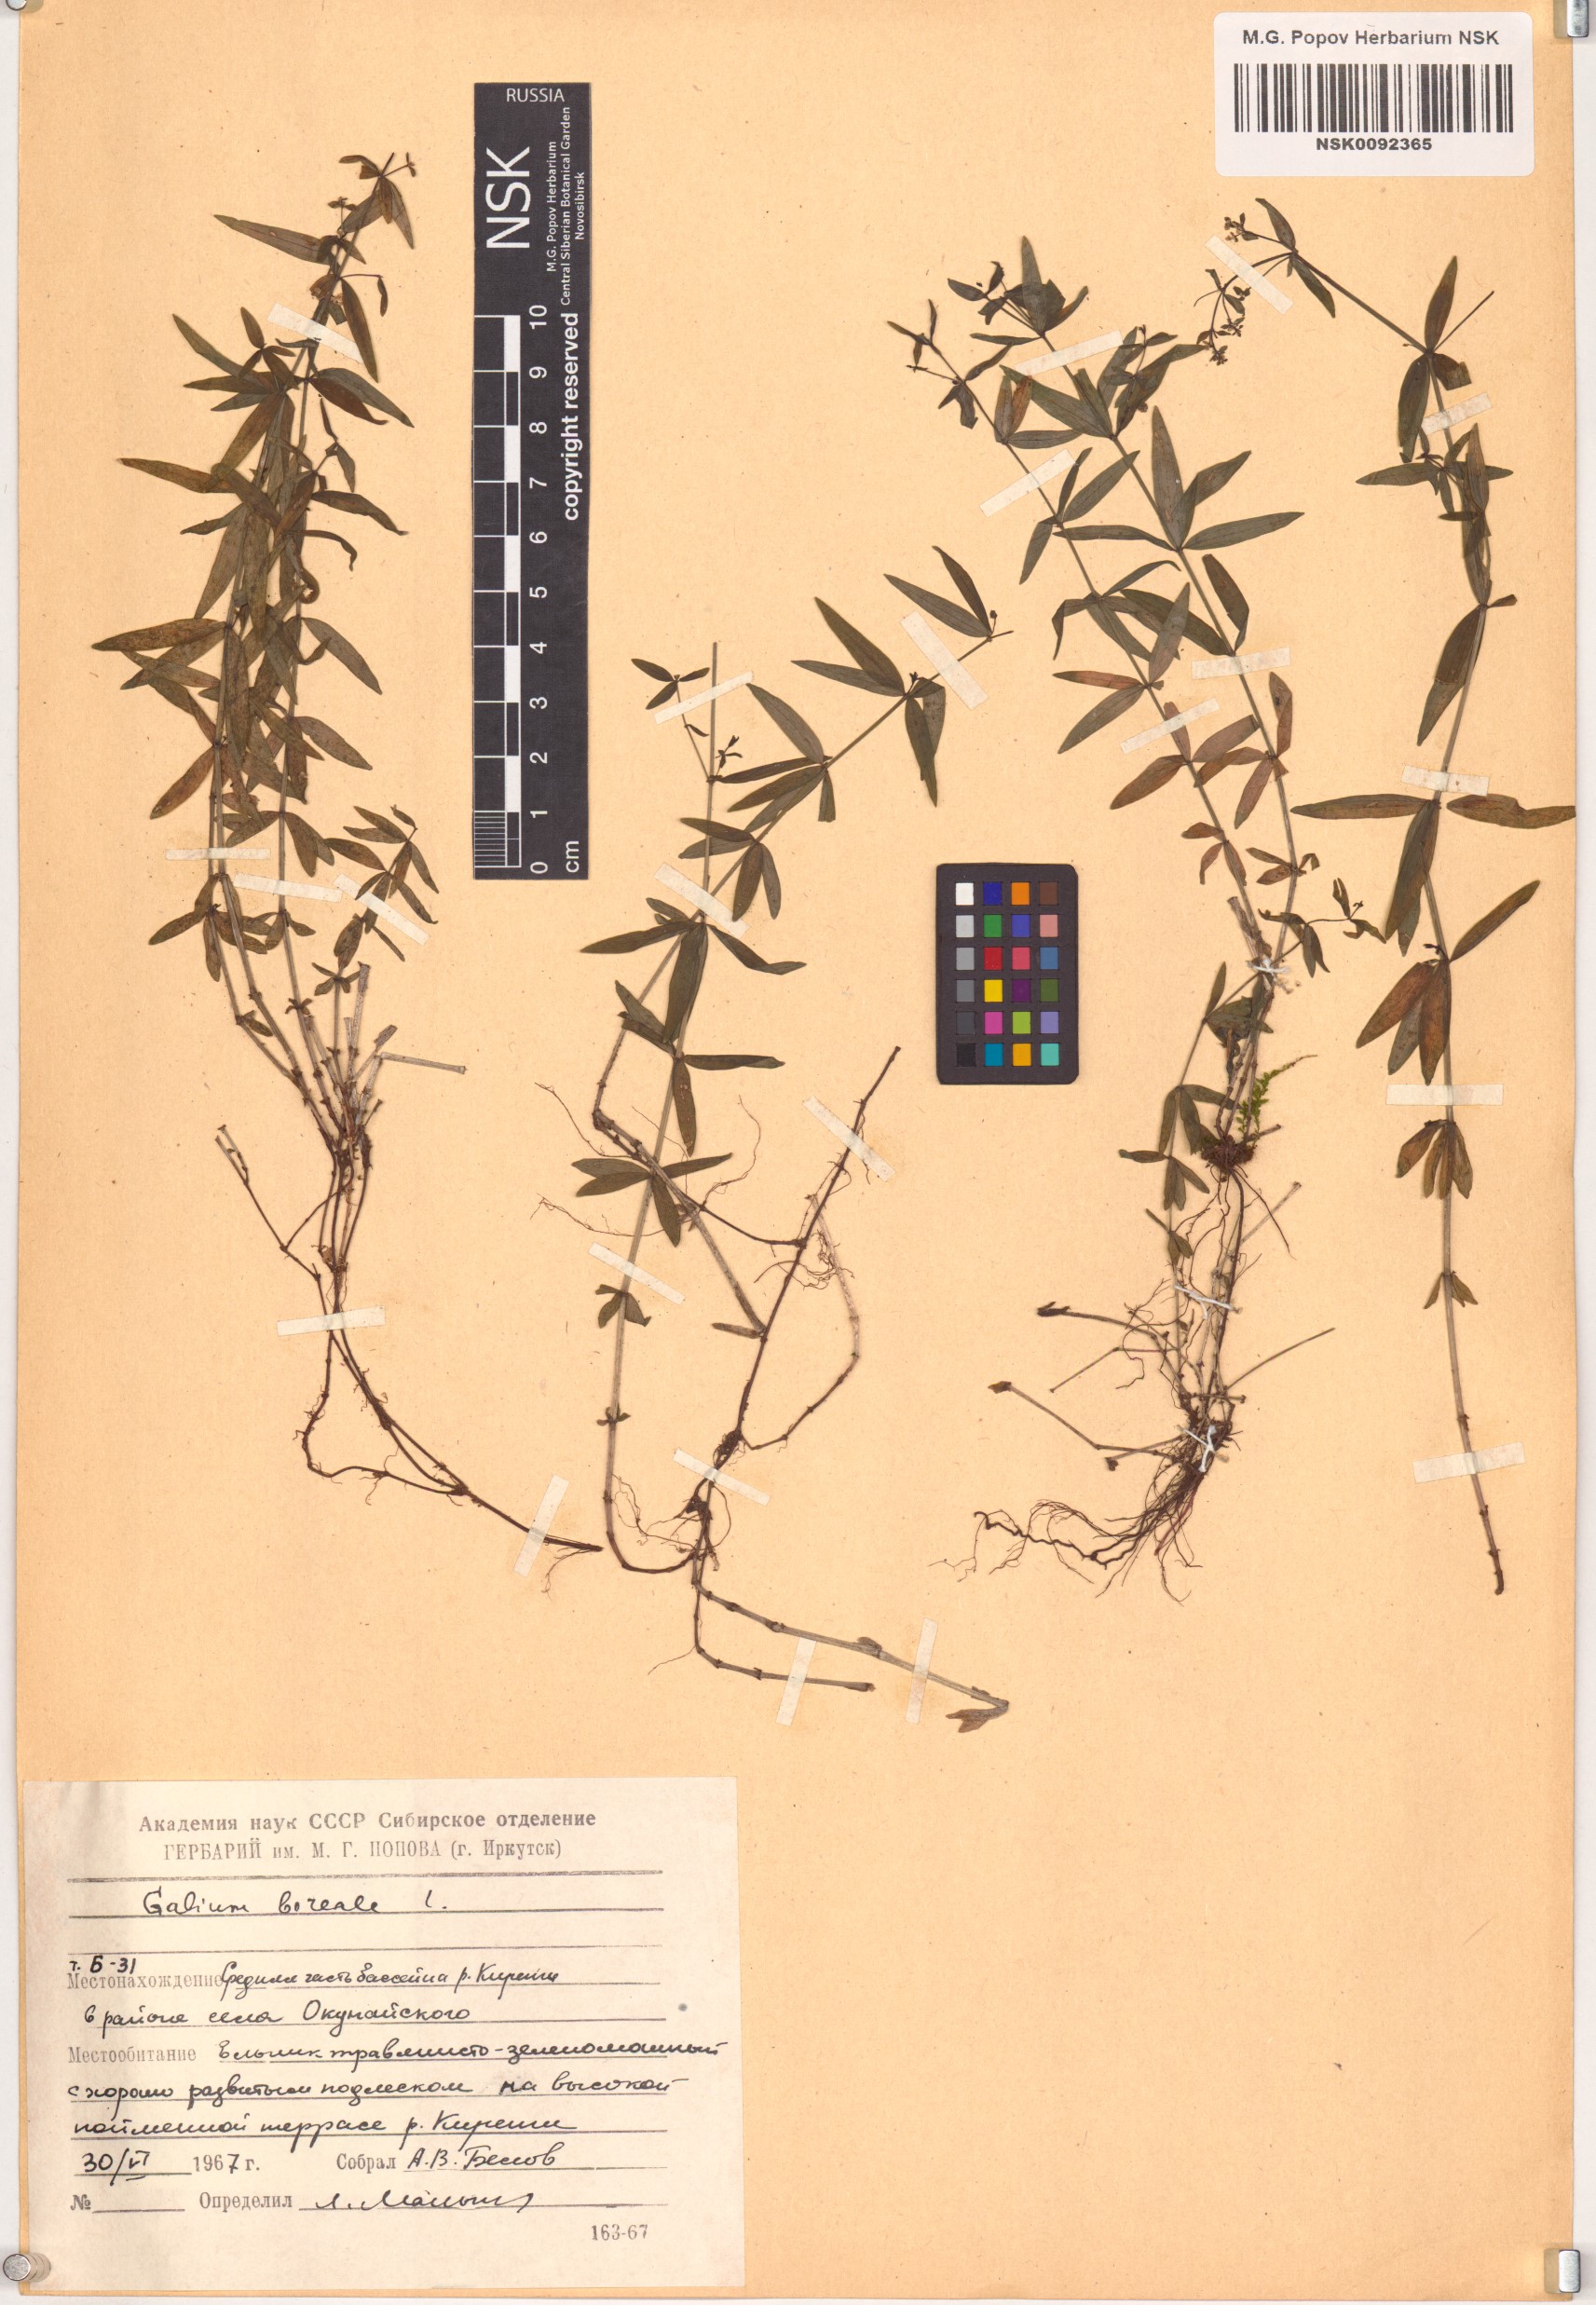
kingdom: Plantae
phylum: Tracheophyta
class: Magnoliopsida
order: Gentianales
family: Rubiaceae
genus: Galium
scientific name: Galium boreale
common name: Northern bedstraw
